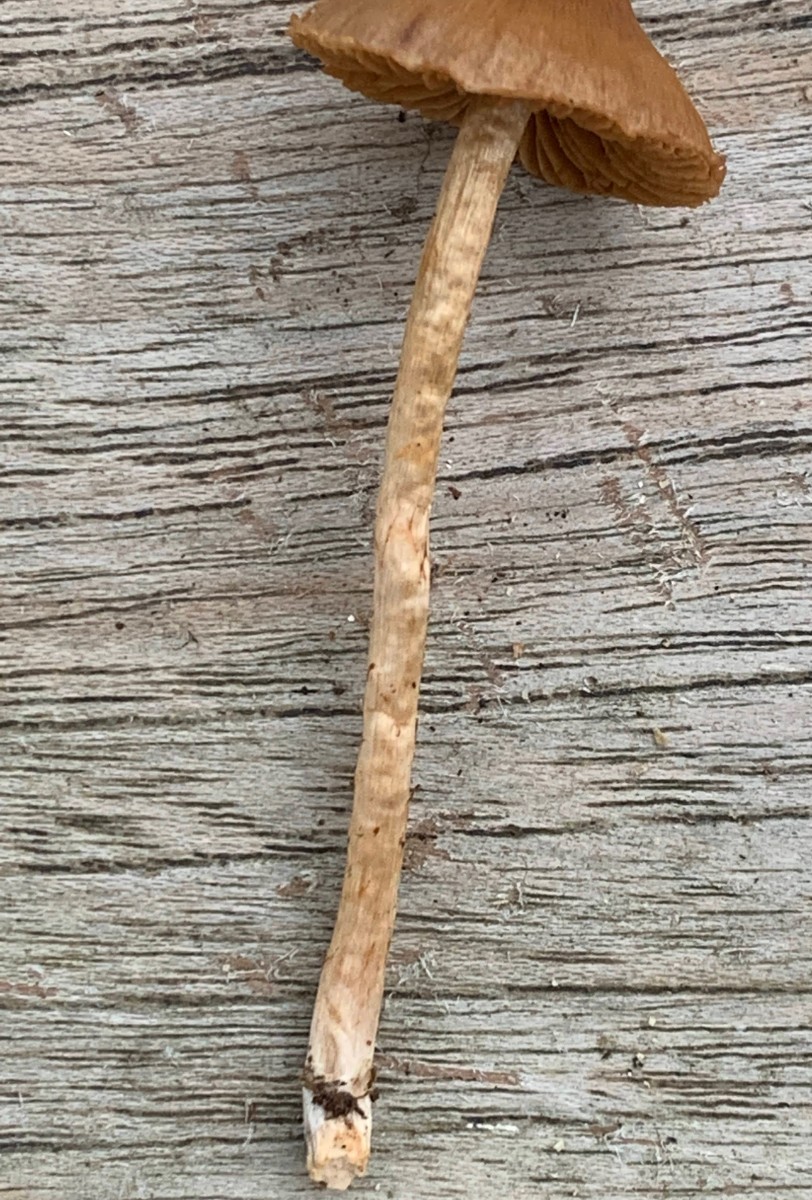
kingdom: Fungi
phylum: Basidiomycota
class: Agaricomycetes
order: Agaricales
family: Cortinariaceae
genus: Cortinarius
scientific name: Cortinarius
